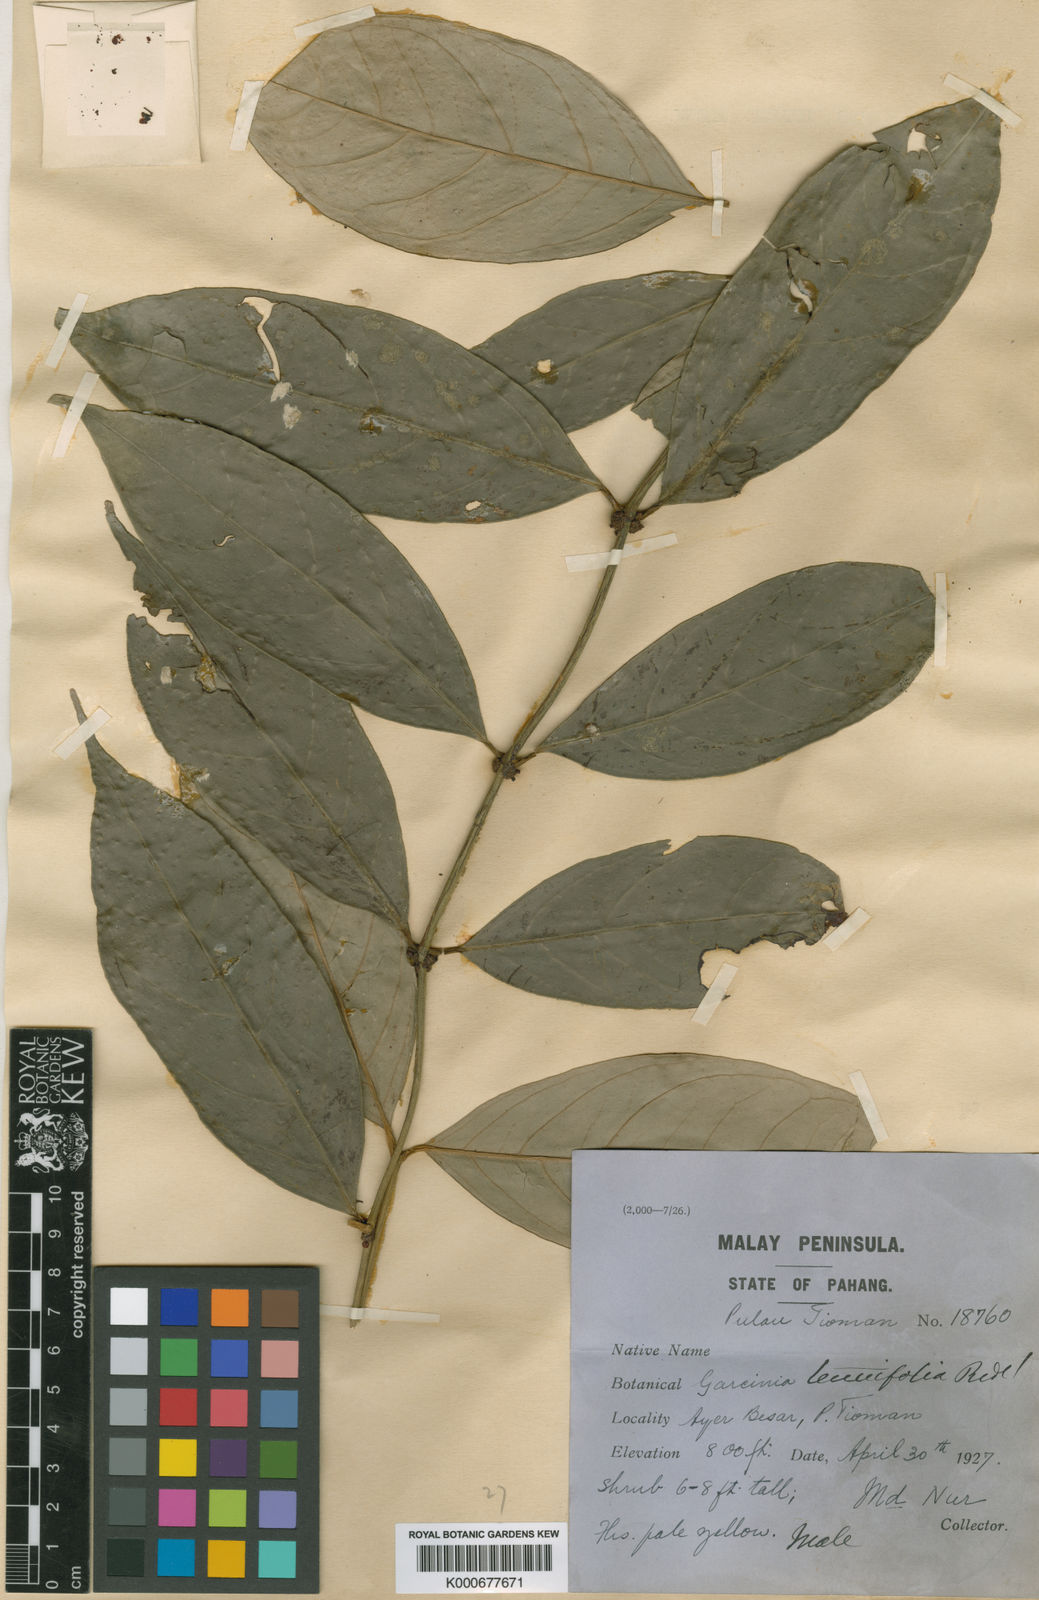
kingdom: Plantae
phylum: Tracheophyta
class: Magnoliopsida
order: Malpighiales
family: Clusiaceae
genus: Garcinia
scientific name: Garcinia dumosa
